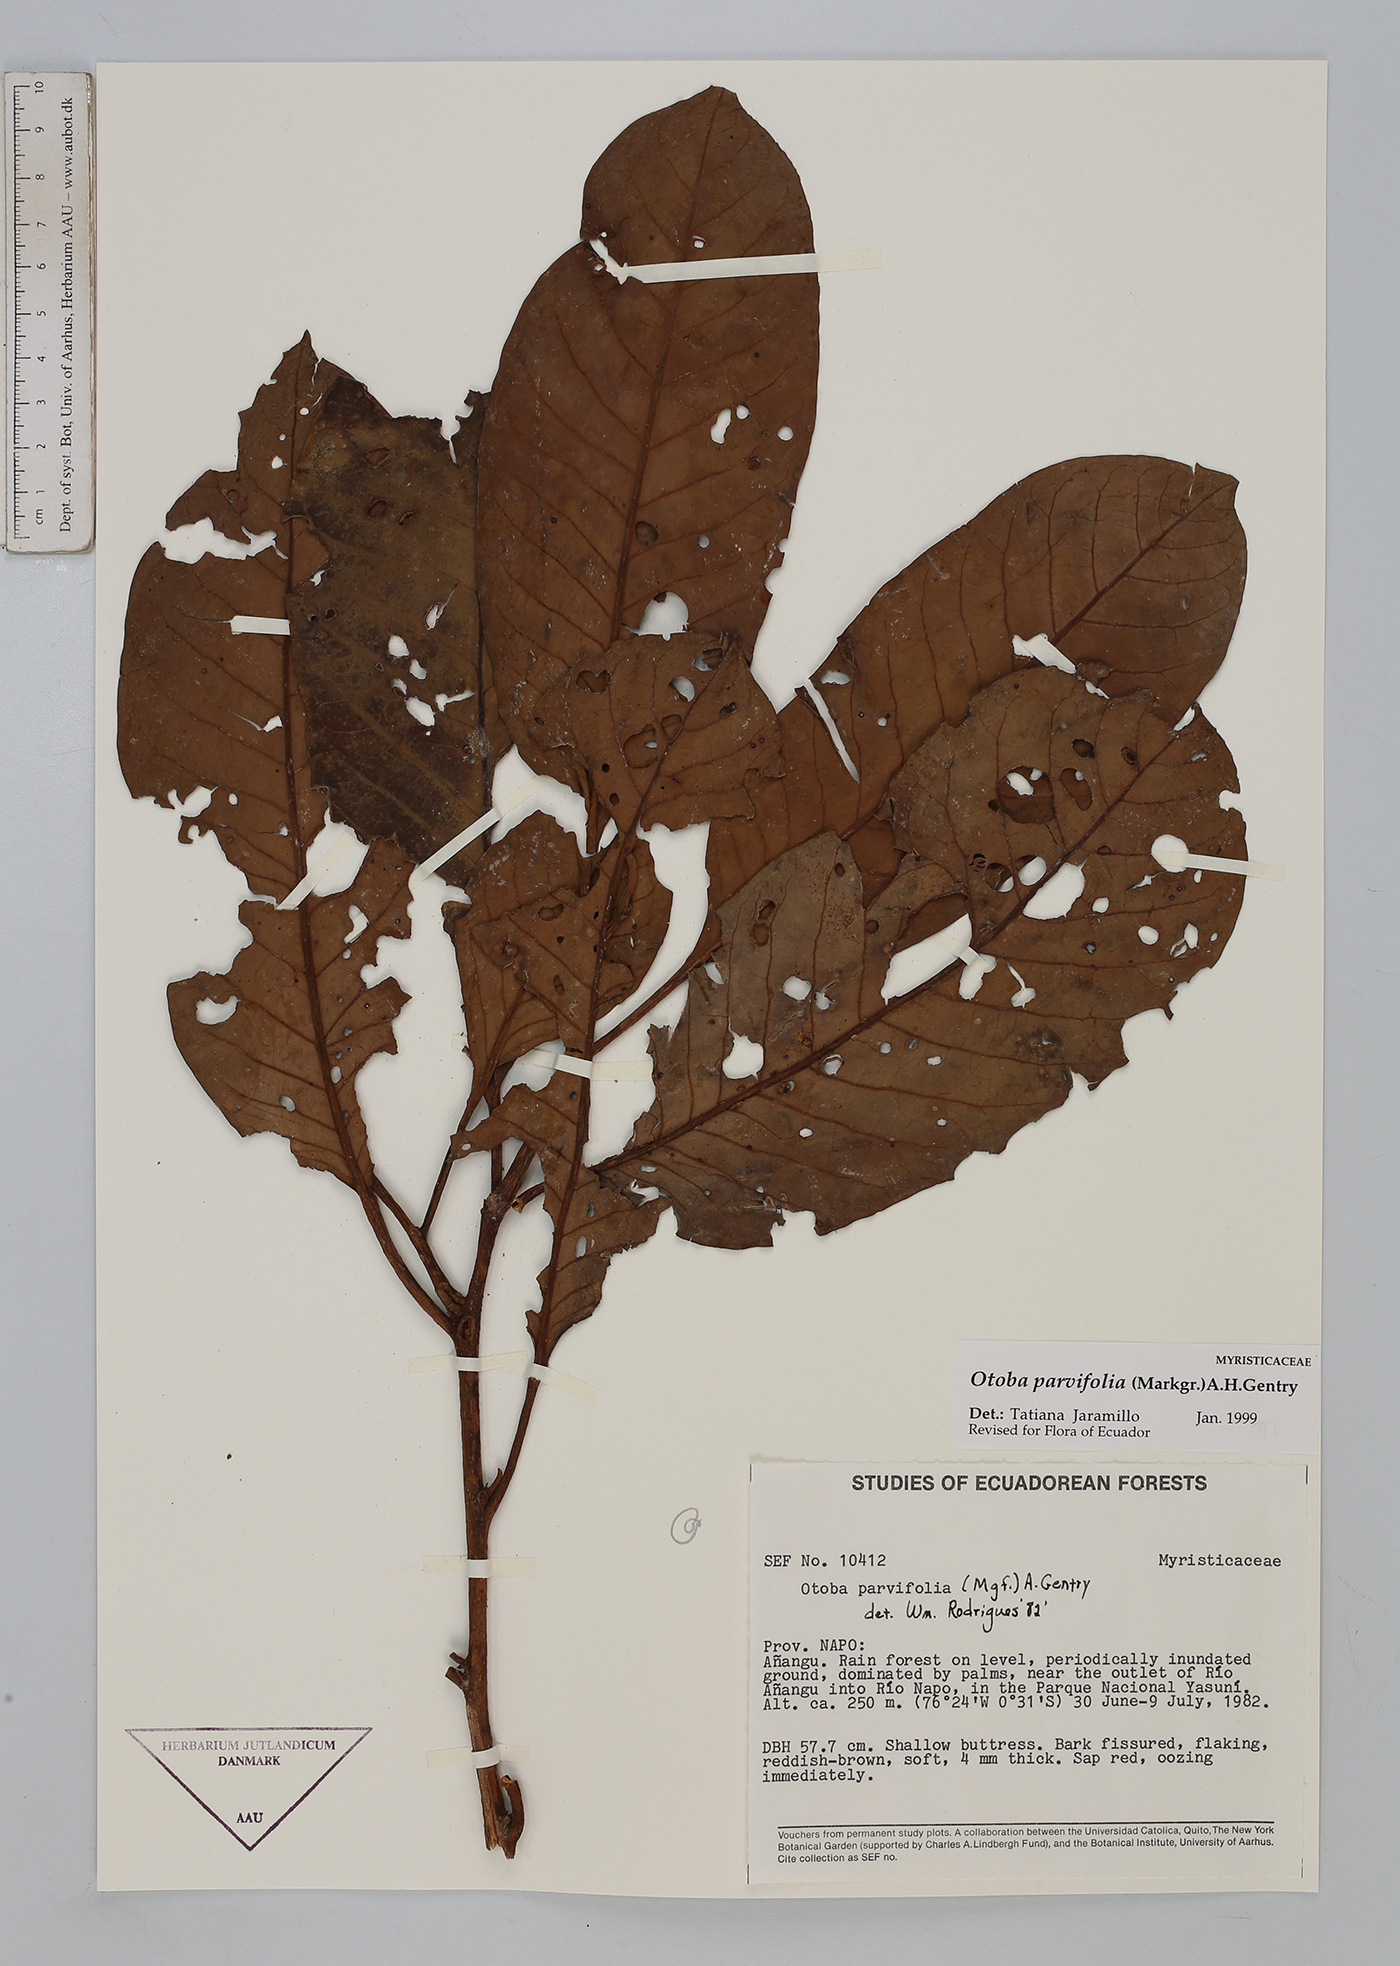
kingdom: Plantae
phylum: Tracheophyta
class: Magnoliopsida
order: Magnoliales
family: Myristicaceae
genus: Otoba
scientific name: Otoba parvifolia
